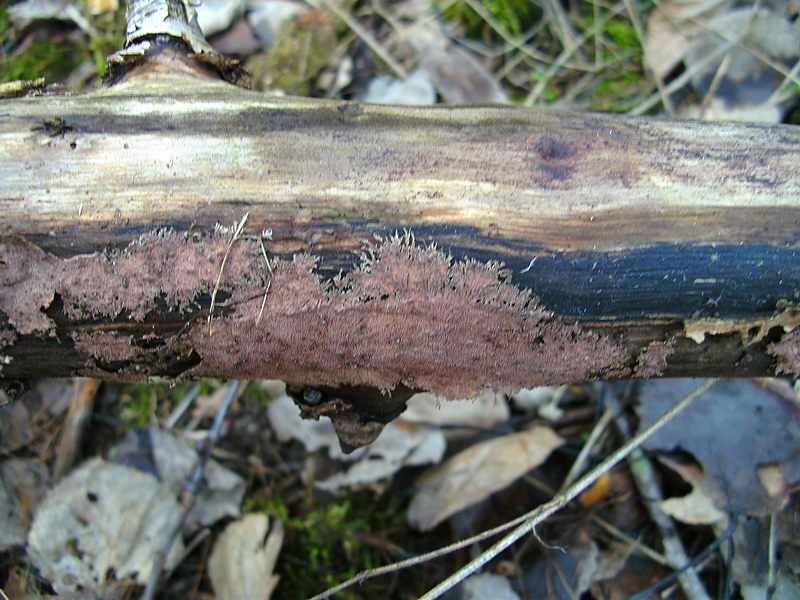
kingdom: Fungi
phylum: Basidiomycota
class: Agaricomycetes
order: Polyporales
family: Steccherinaceae
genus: Steccherinum
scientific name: Steccherinum fimbriatum
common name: trådet skønpig
